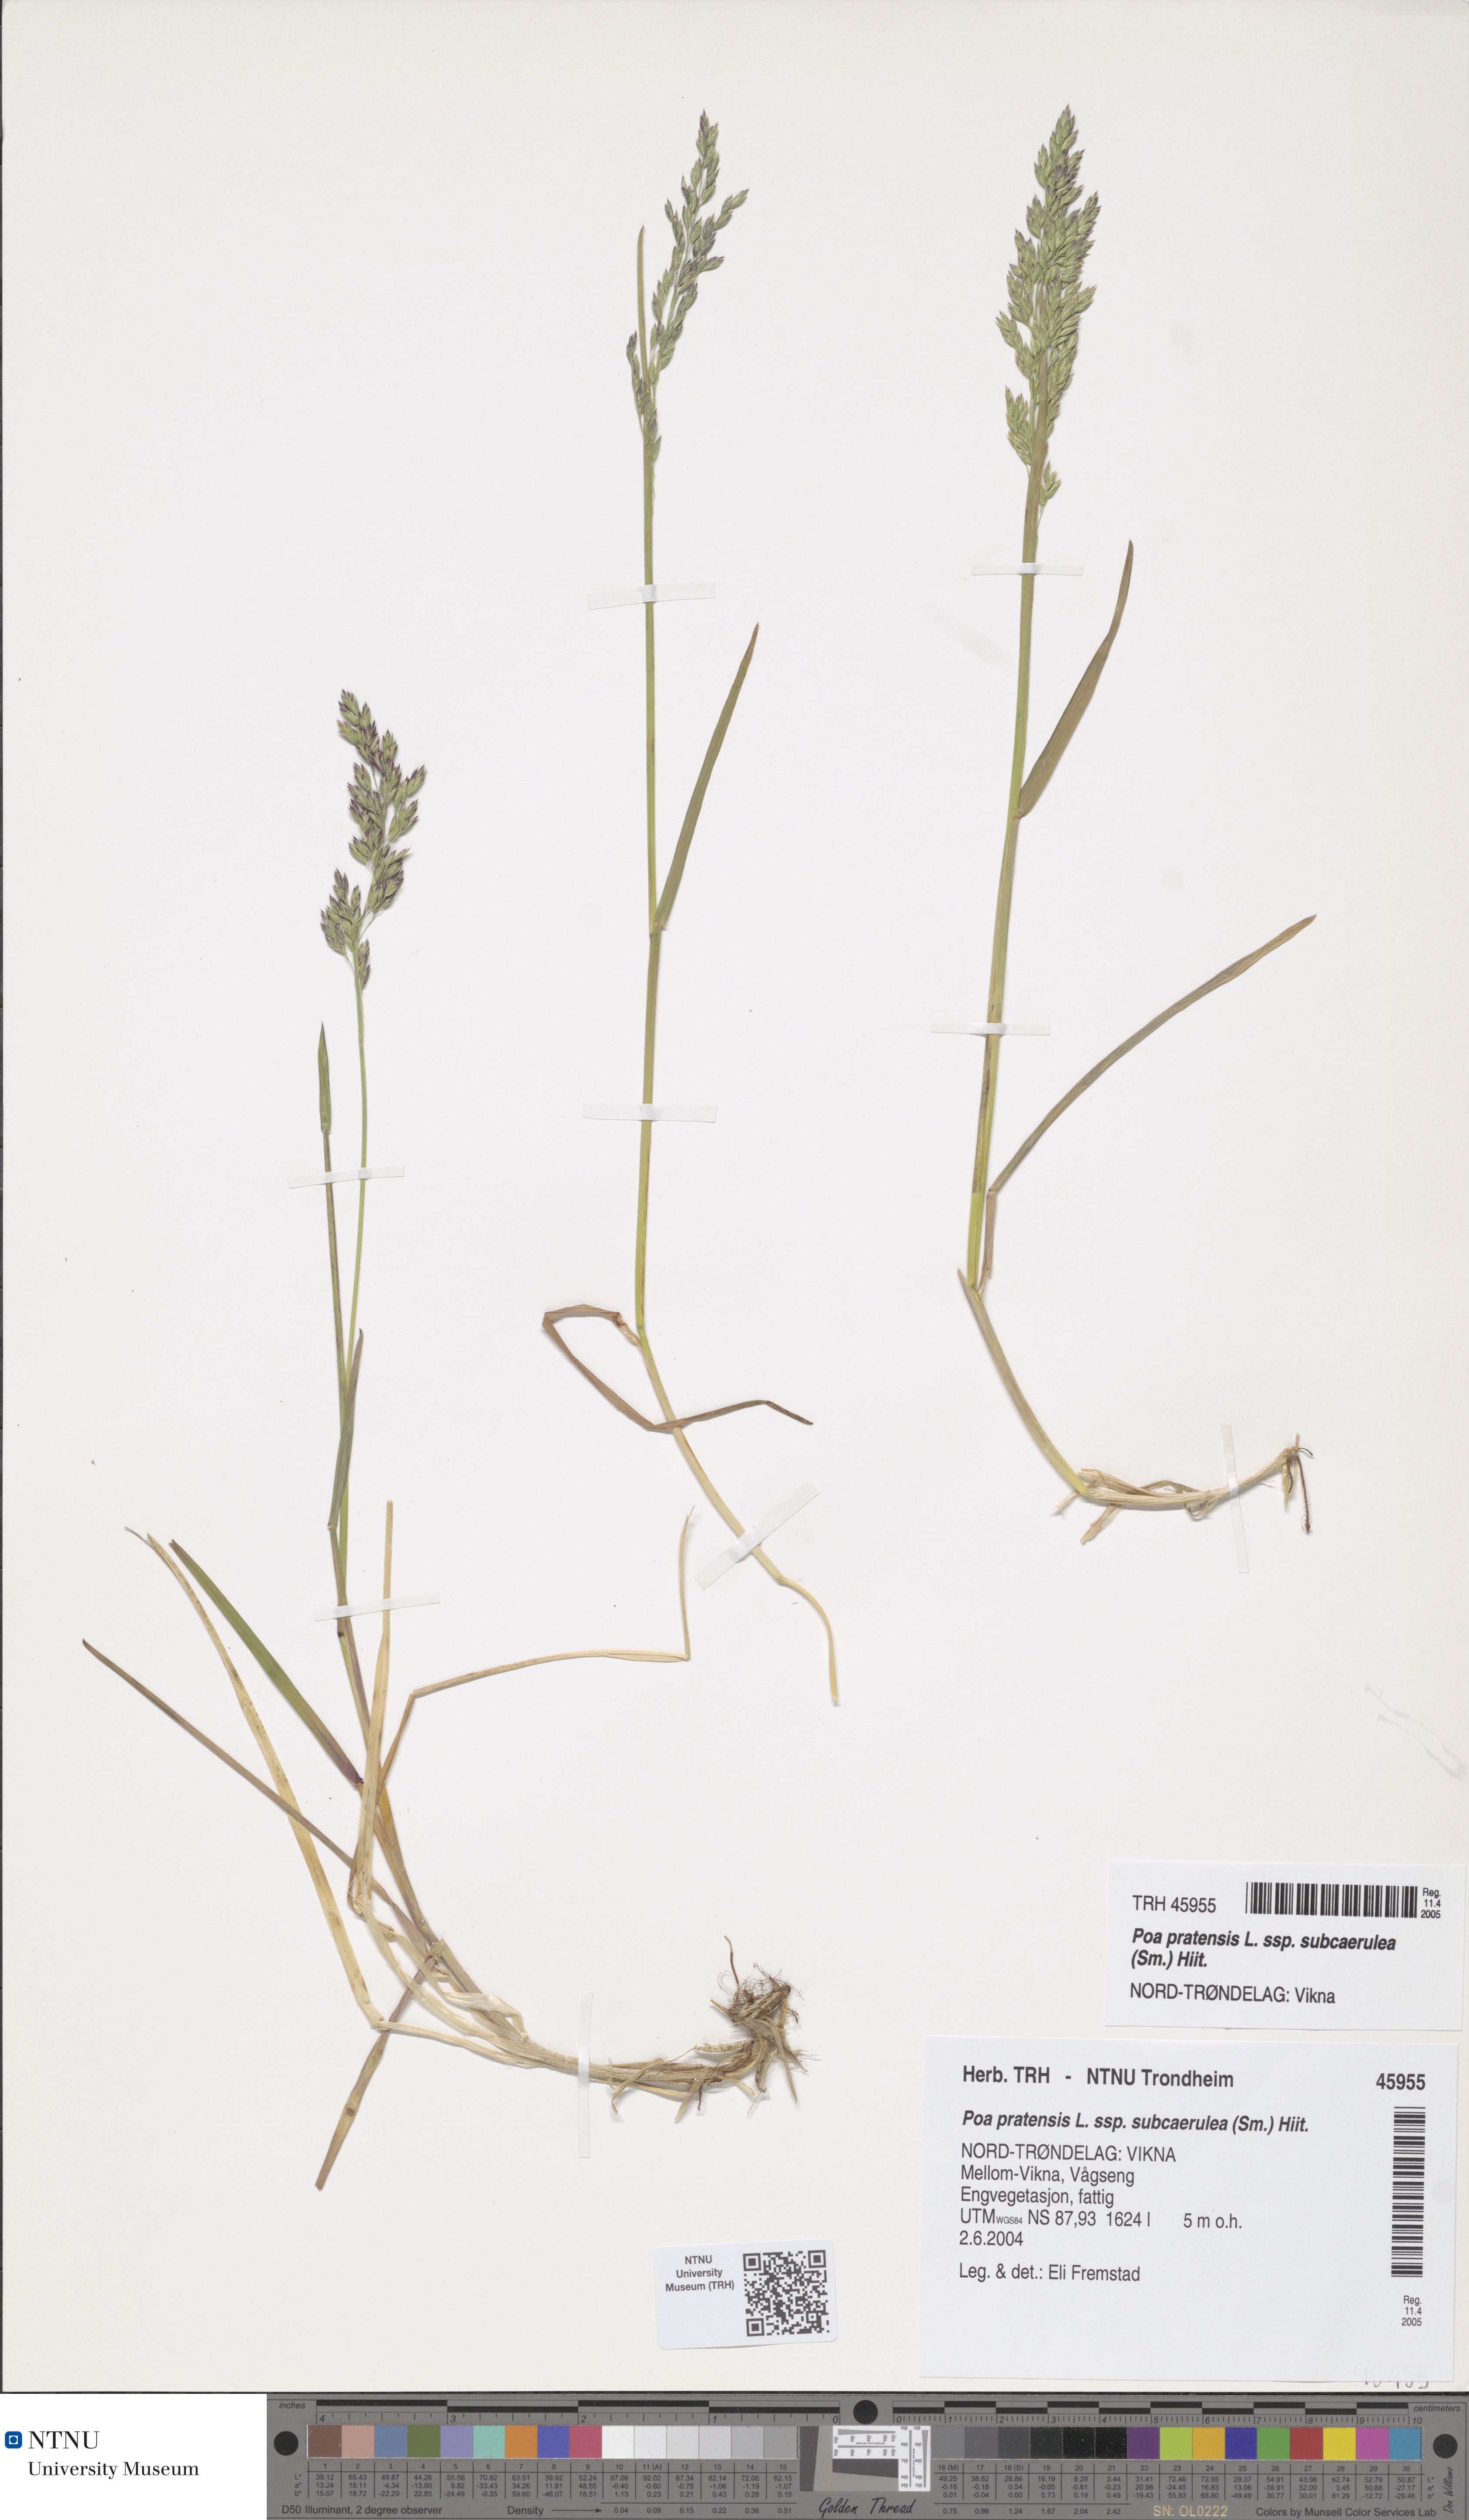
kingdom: Plantae
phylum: Tracheophyta
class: Liliopsida
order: Poales
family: Poaceae
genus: Poa
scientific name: Poa humilis
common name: Spreading meadow-grass
